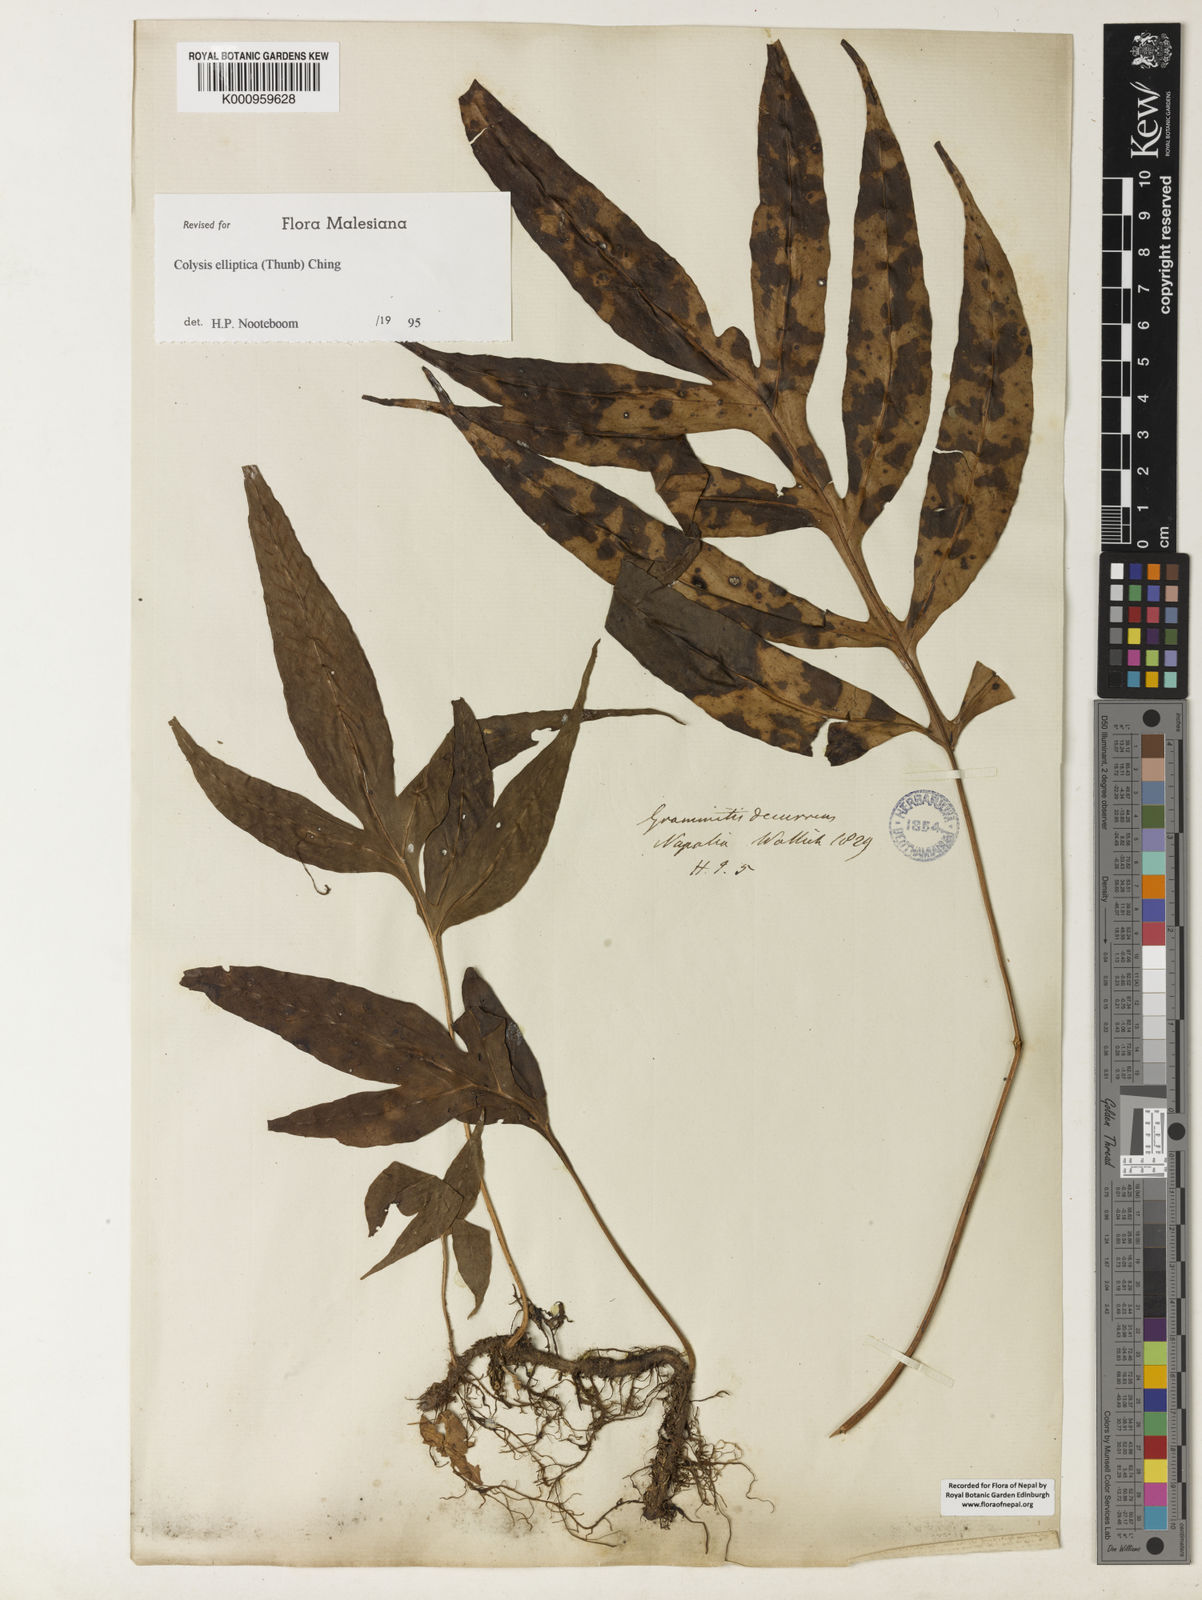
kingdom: Plantae
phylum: Tracheophyta
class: Polypodiopsida
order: Polypodiales
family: Polypodiaceae
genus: Leptochilus
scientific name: Leptochilus ellipticus
